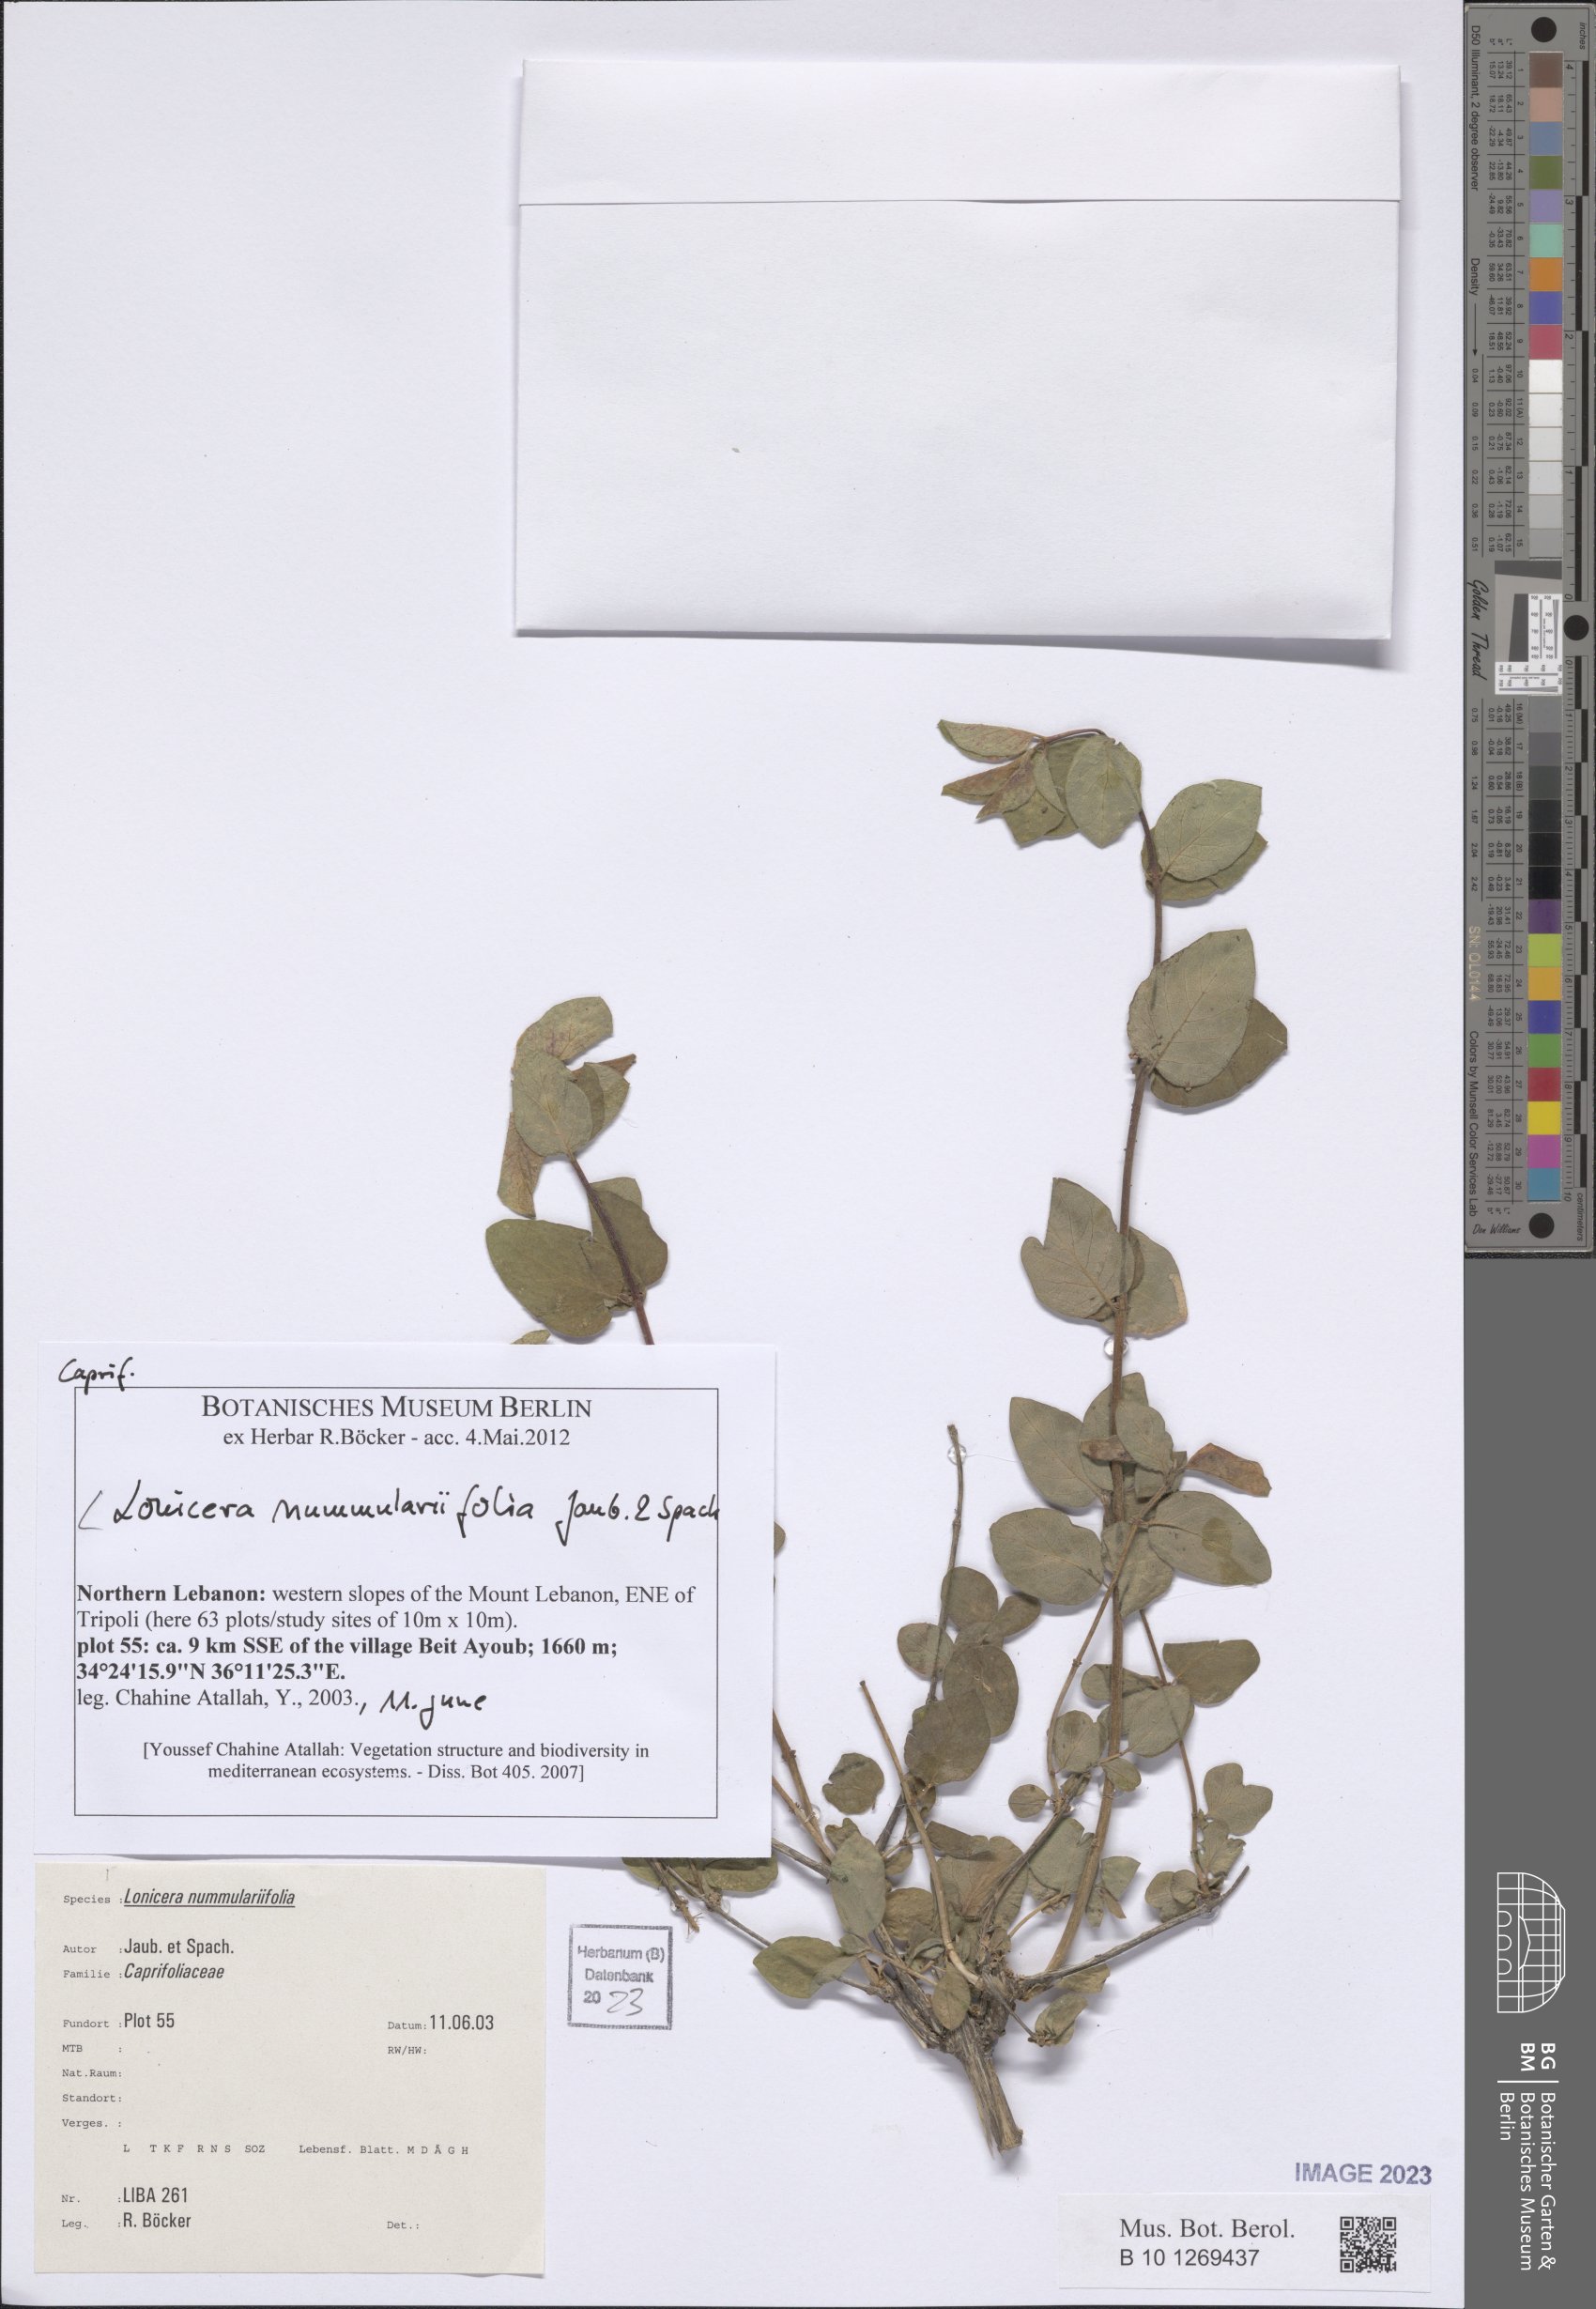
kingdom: Plantae
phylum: Tracheophyta
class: Magnoliopsida
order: Dipsacales
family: Caprifoliaceae
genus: Lonicera
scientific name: Lonicera nummulariifolia
